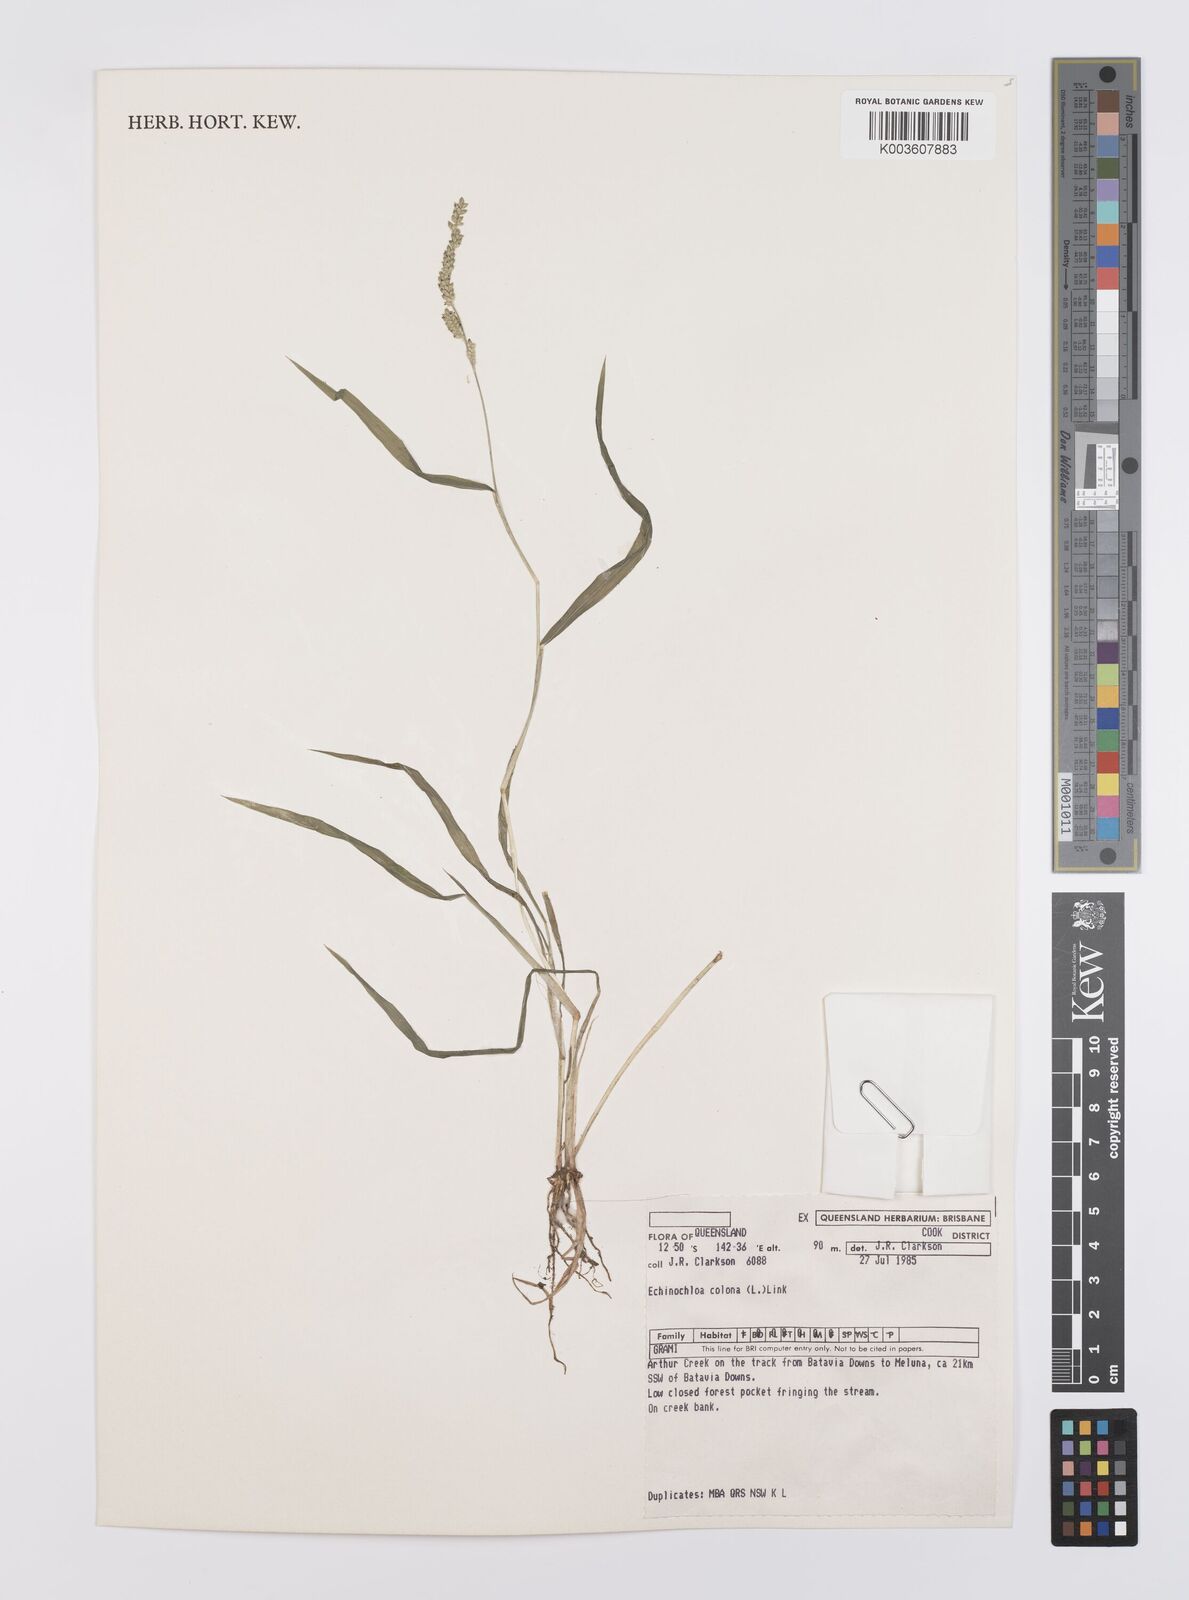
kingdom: Plantae
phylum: Tracheophyta
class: Liliopsida
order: Poales
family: Poaceae
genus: Echinochloa
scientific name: Echinochloa colonum
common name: Jungle rice
